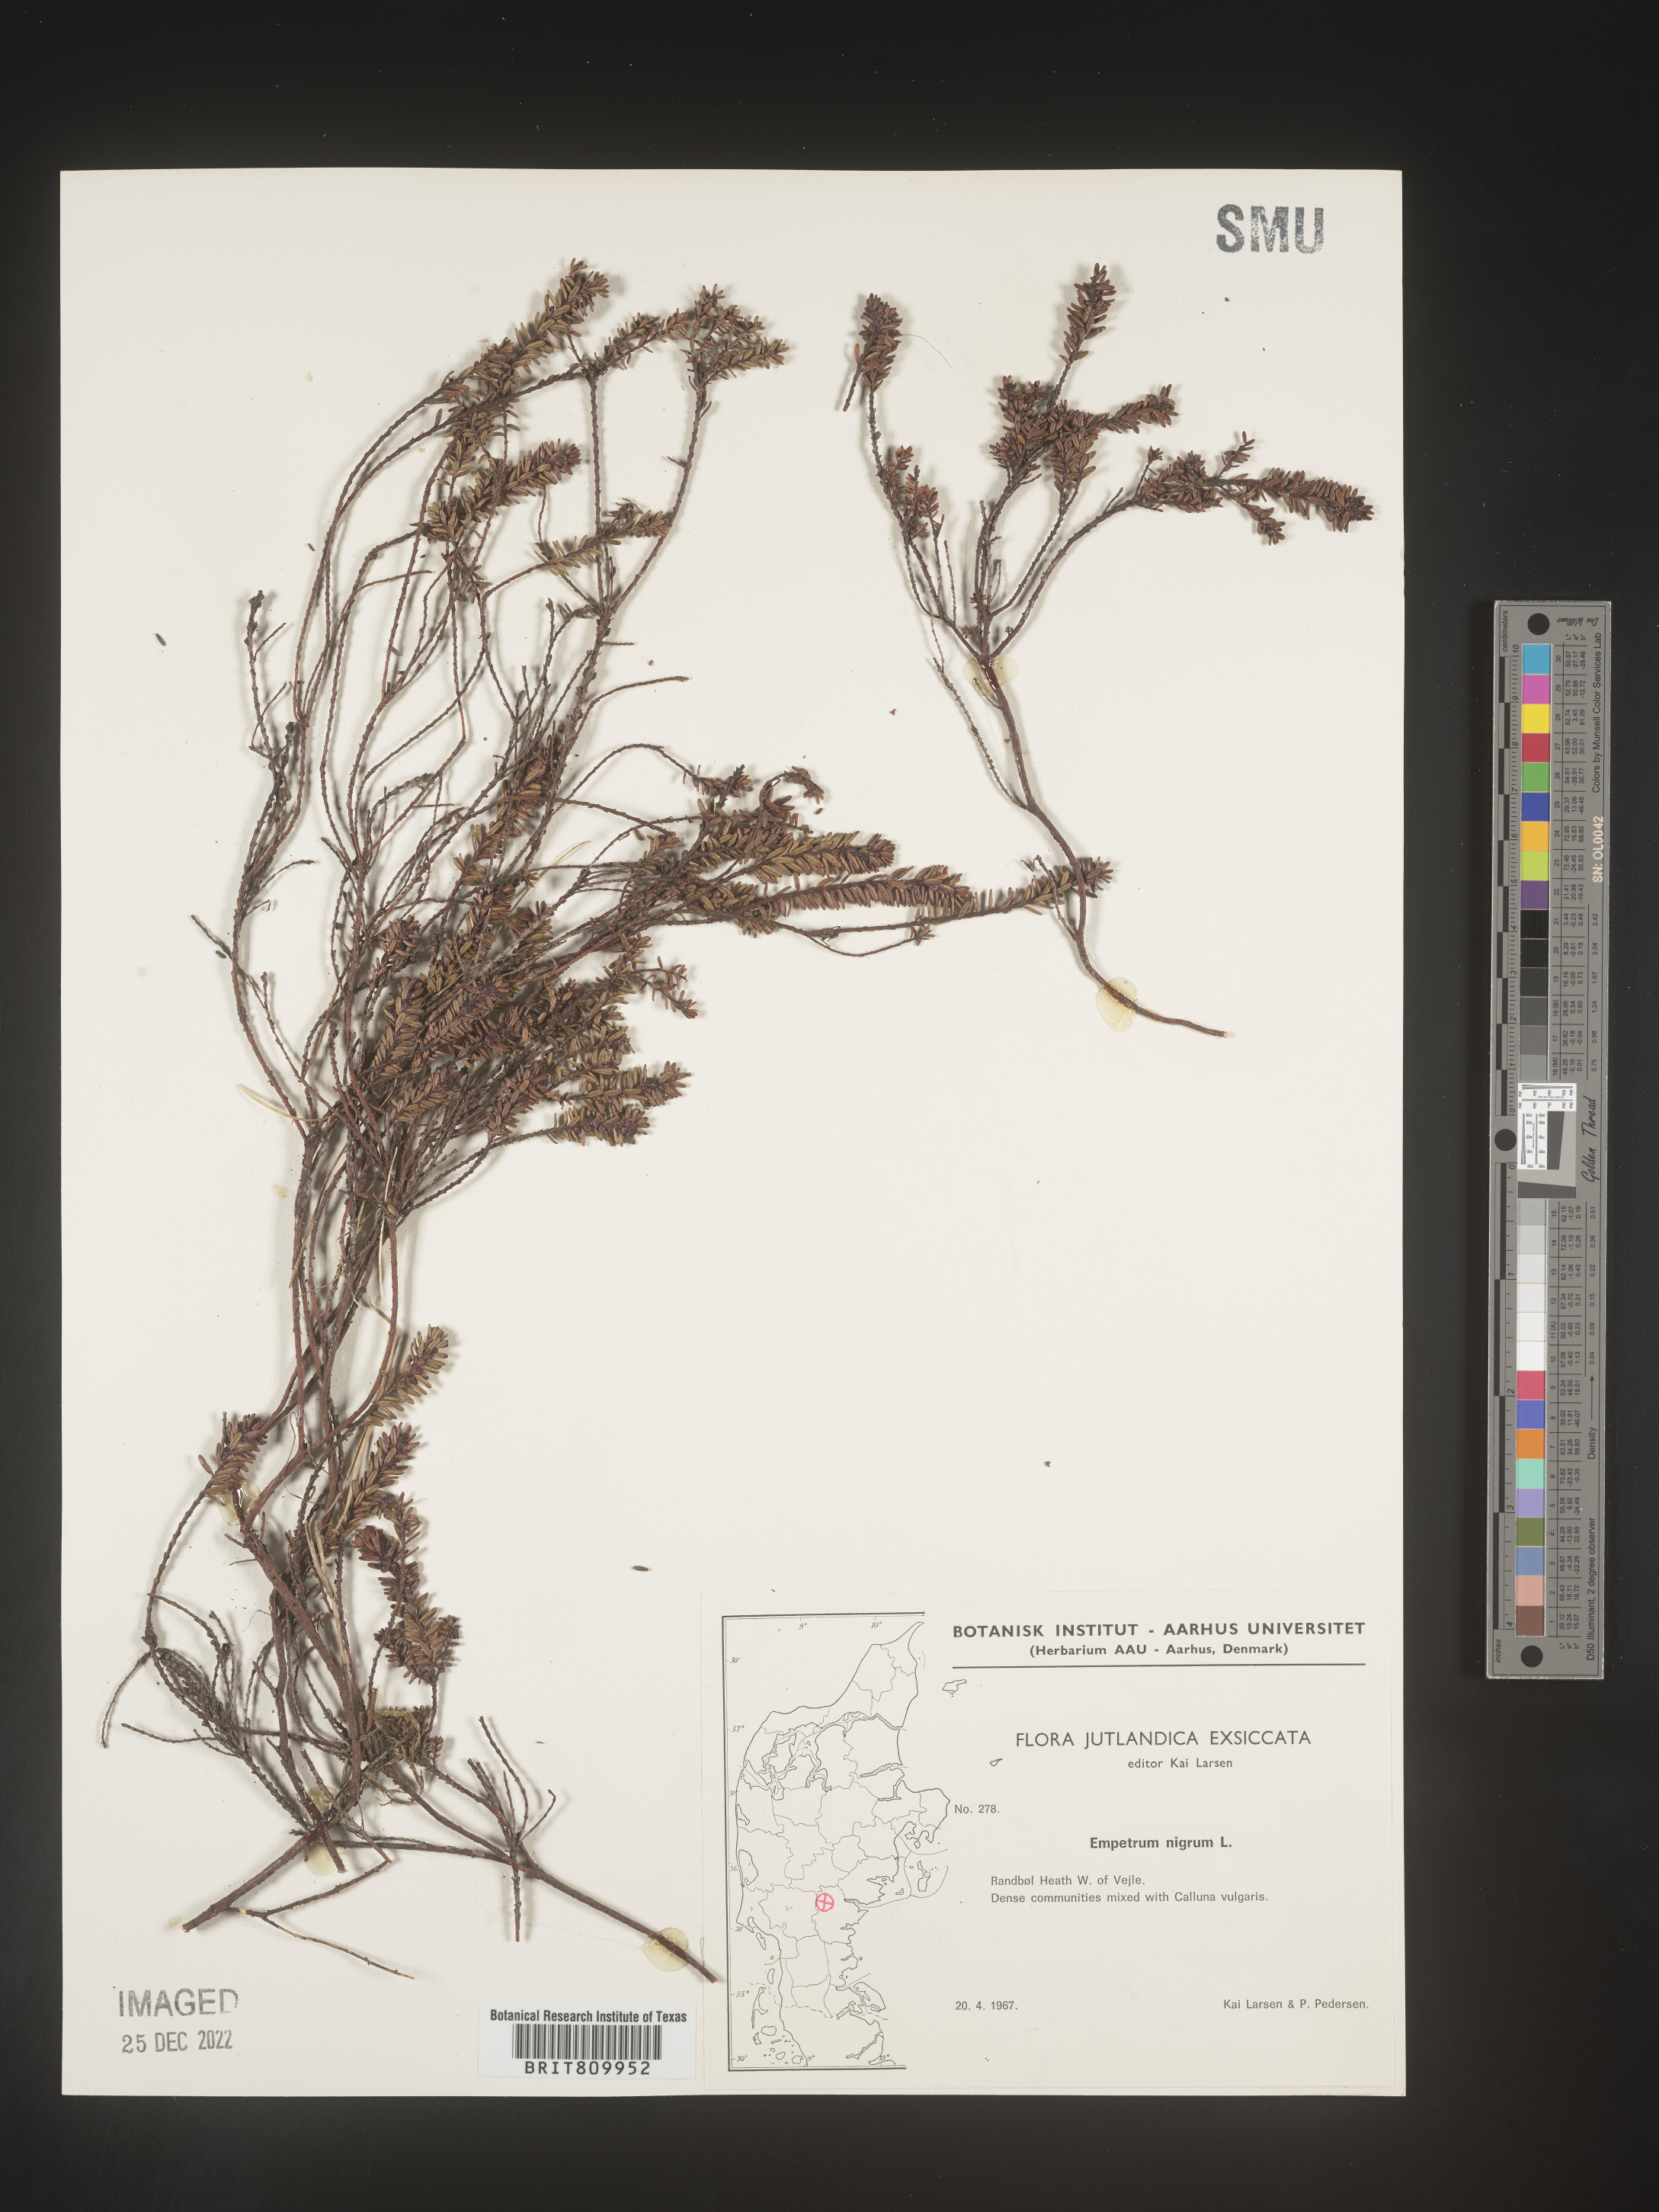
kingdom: Plantae
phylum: Tracheophyta
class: Magnoliopsida
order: Ericales
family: Ericaceae
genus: Empetrum
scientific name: Empetrum
